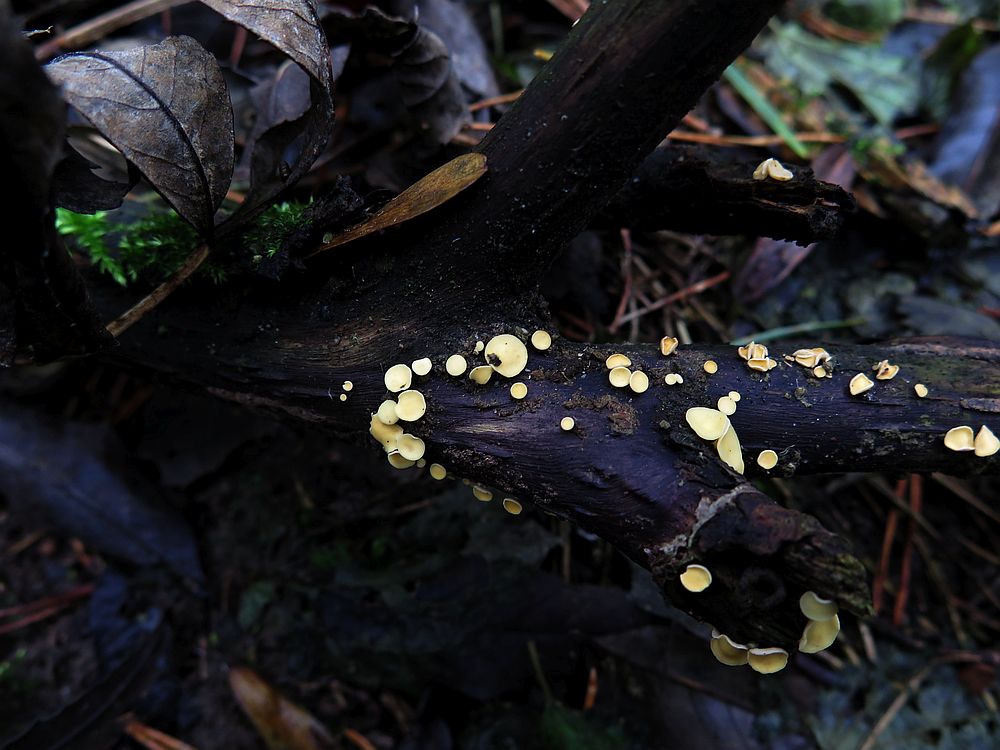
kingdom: Fungi
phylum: Ascomycota
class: Leotiomycetes
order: Helotiales
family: Helotiaceae
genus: Hymenoscyphus
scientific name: Hymenoscyphus calyculus
